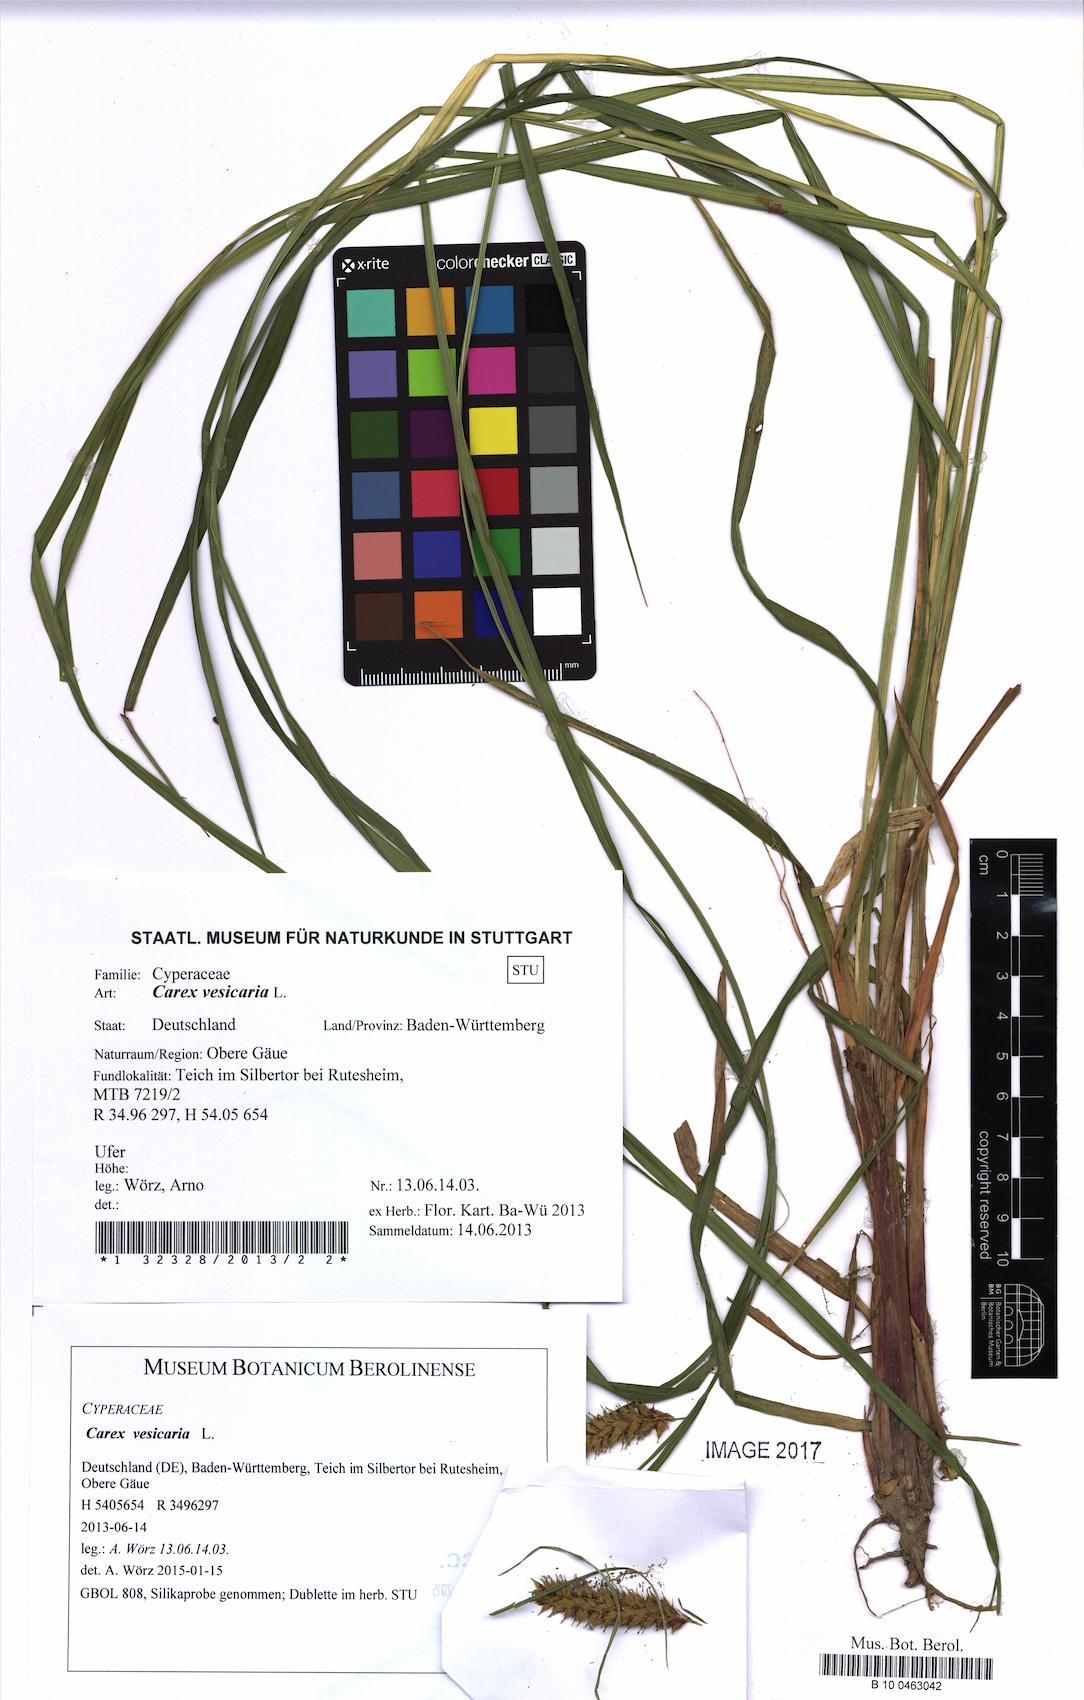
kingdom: Plantae
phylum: Tracheophyta
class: Liliopsida
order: Poales
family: Cyperaceae
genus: Carex
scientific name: Carex vesicaria
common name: Bladder-sedge
